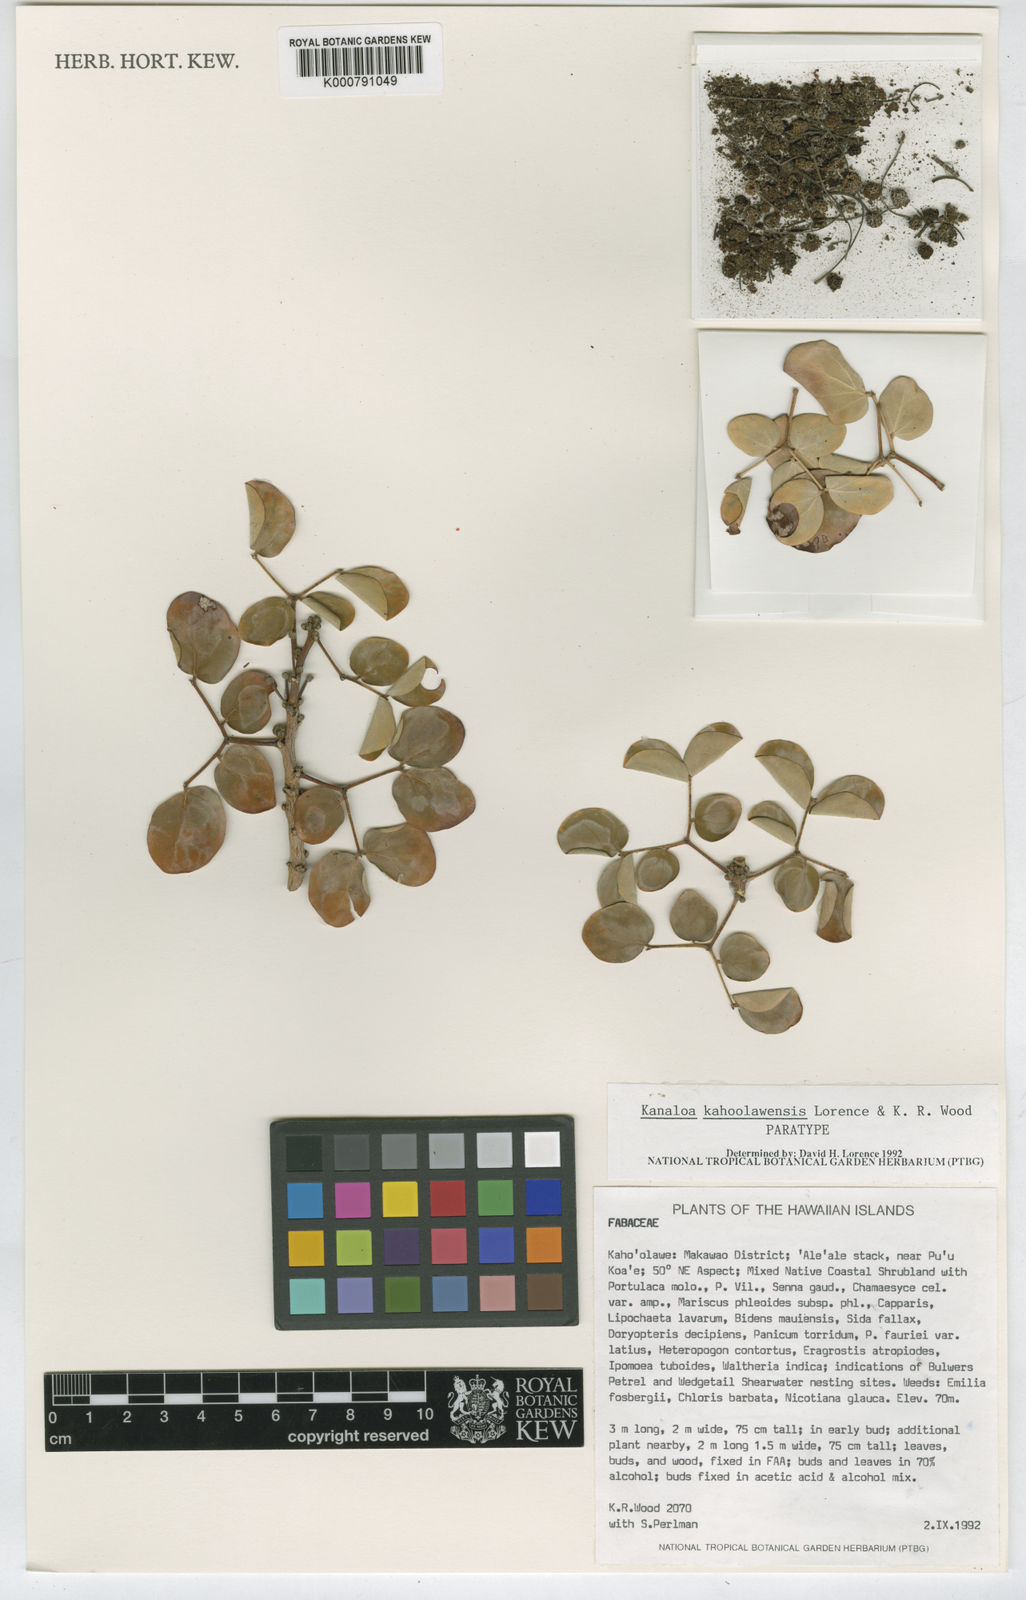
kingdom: Plantae
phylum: Tracheophyta
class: Magnoliopsida
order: Fabales
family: Fabaceae
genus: Kanaloa
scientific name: Kanaloa kahoolawensis
